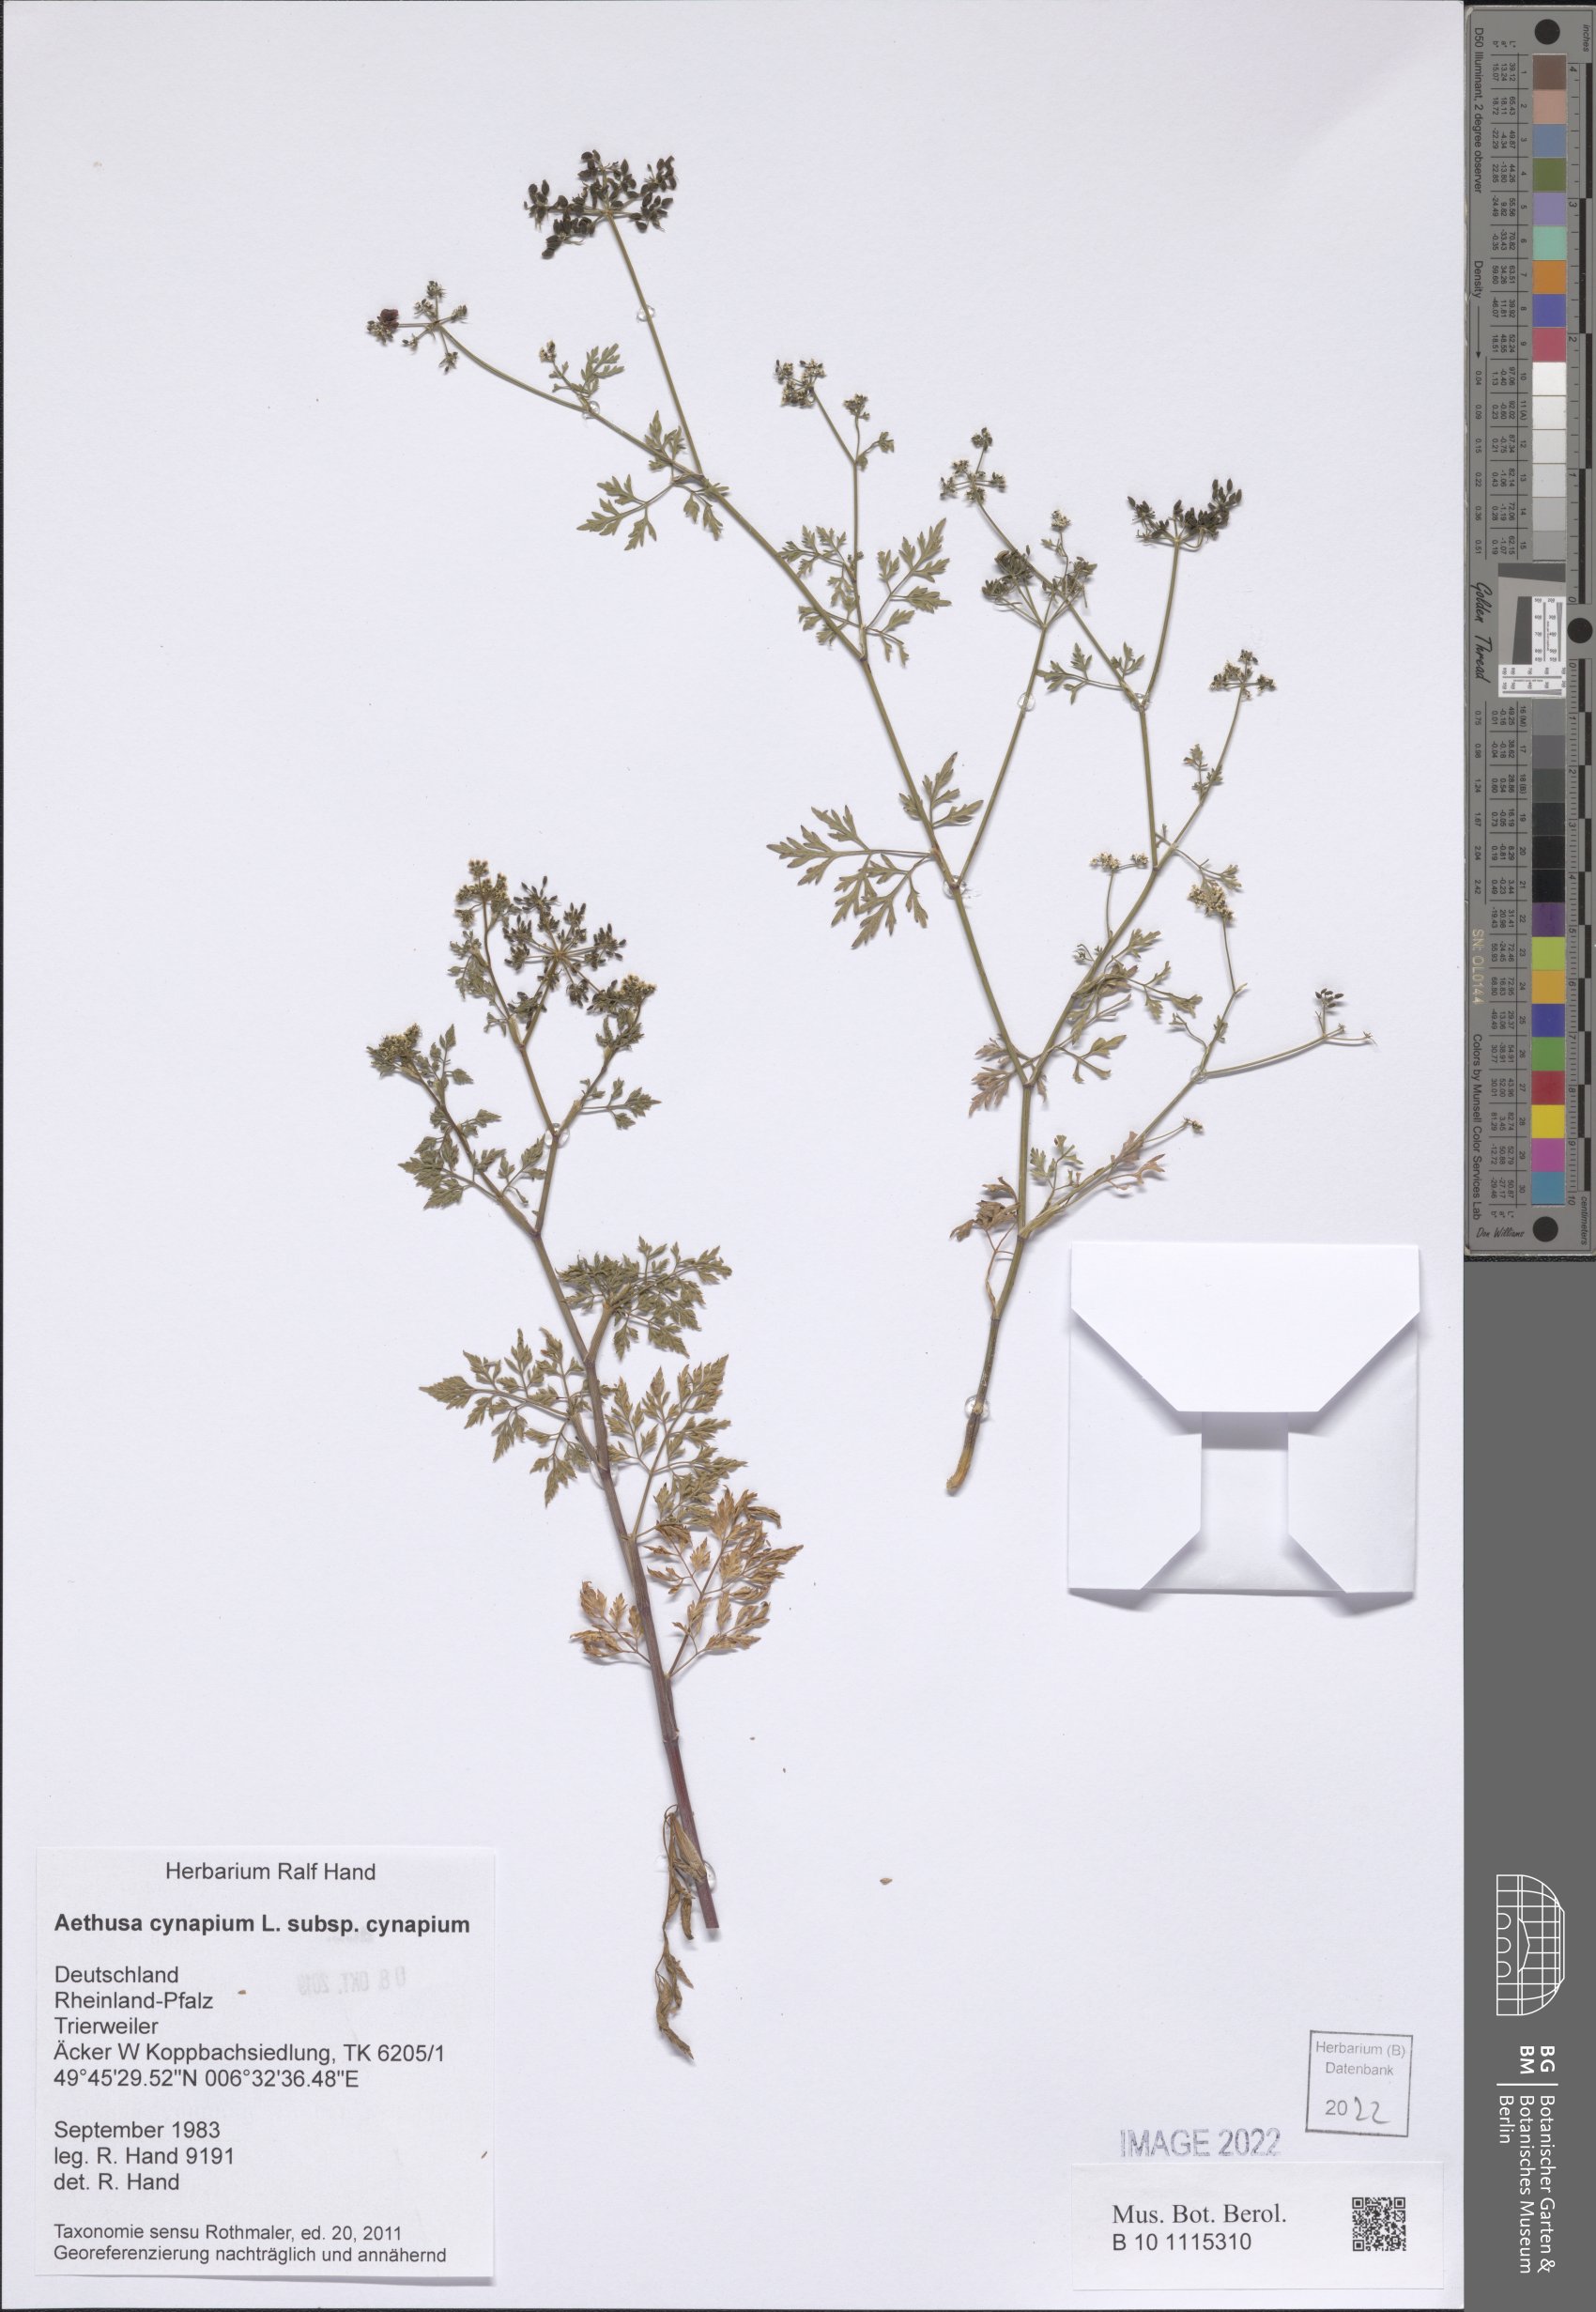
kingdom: Plantae
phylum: Tracheophyta
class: Magnoliopsida
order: Apiales
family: Apiaceae
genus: Aethusa
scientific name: Aethusa cynapium
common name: Fool's parsley
